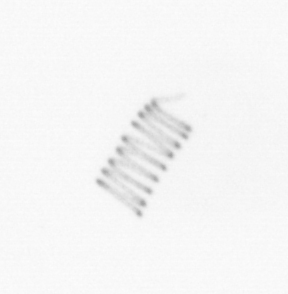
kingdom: Chromista
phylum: Ochrophyta
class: Bacillariophyceae
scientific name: Bacillariophyceae
